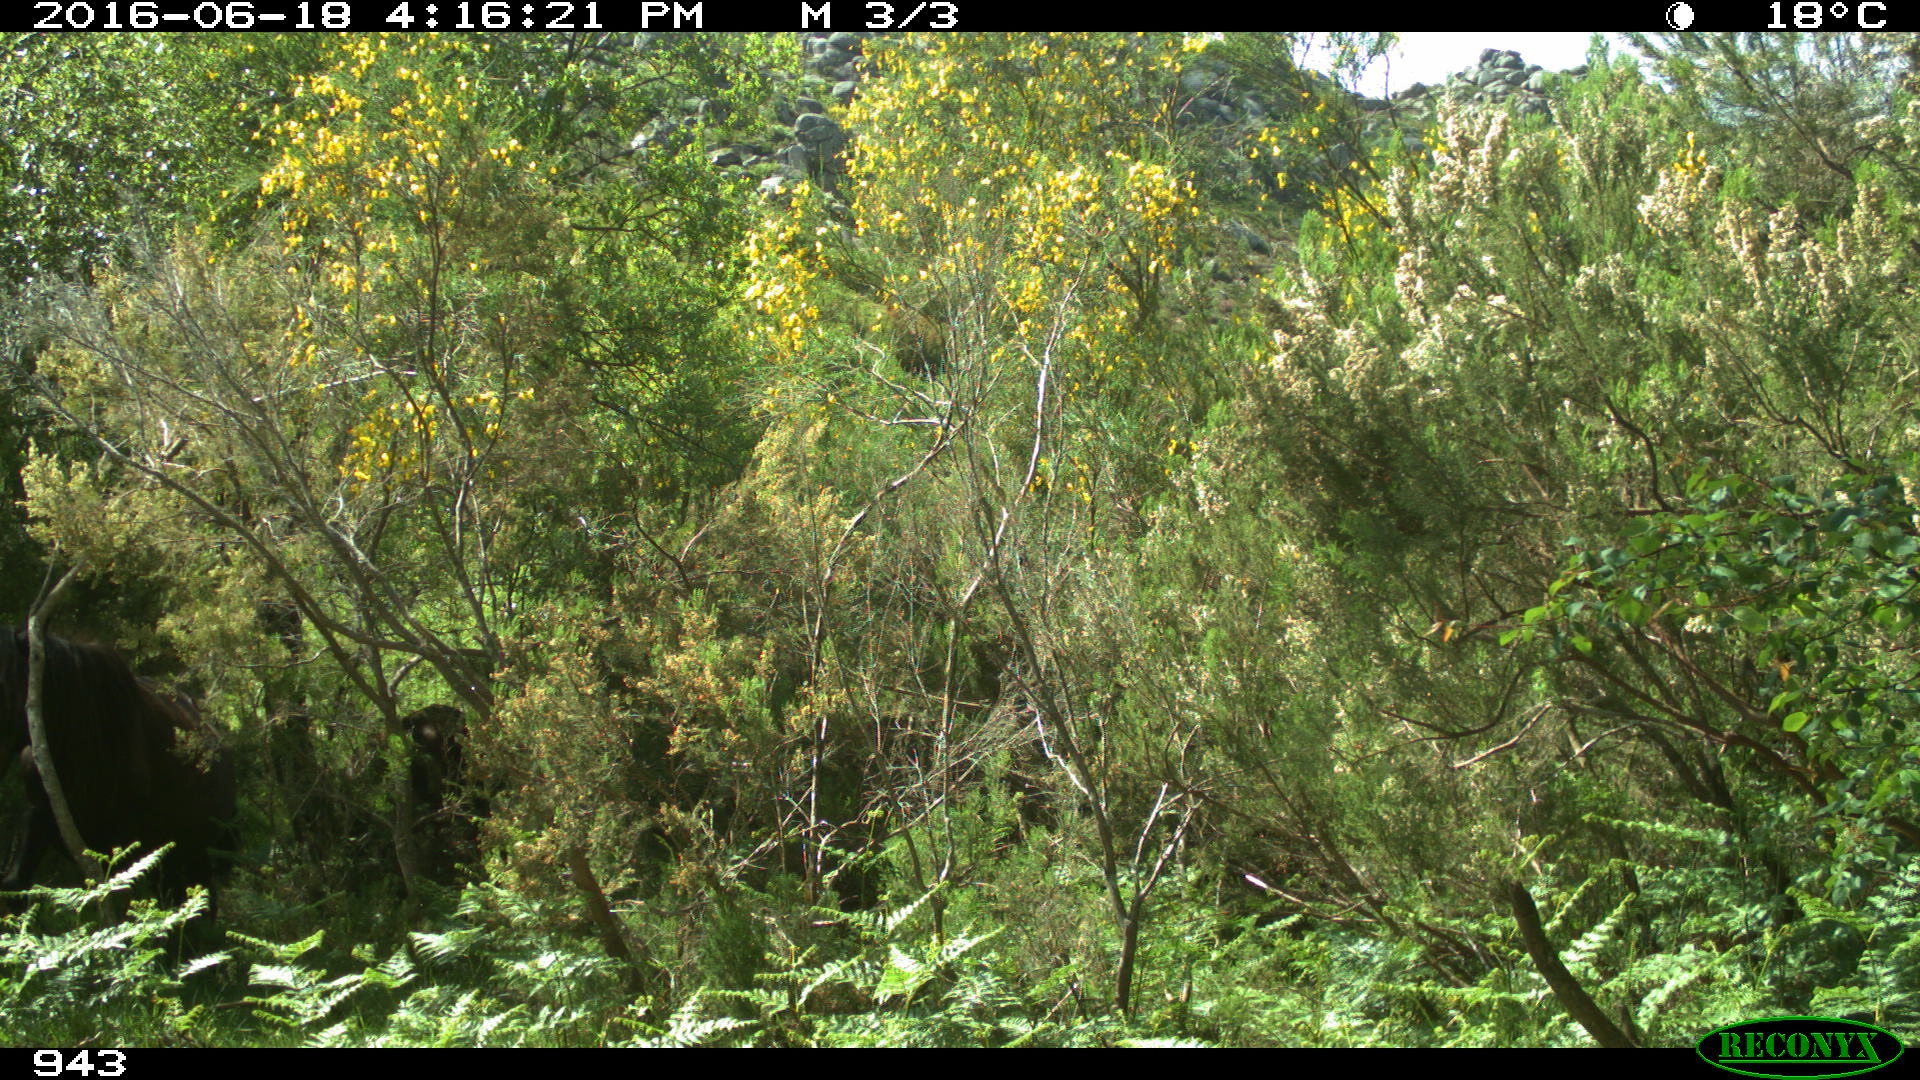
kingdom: Animalia
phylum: Chordata
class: Mammalia
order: Perissodactyla
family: Equidae
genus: Equus
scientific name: Equus caballus
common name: Horse
